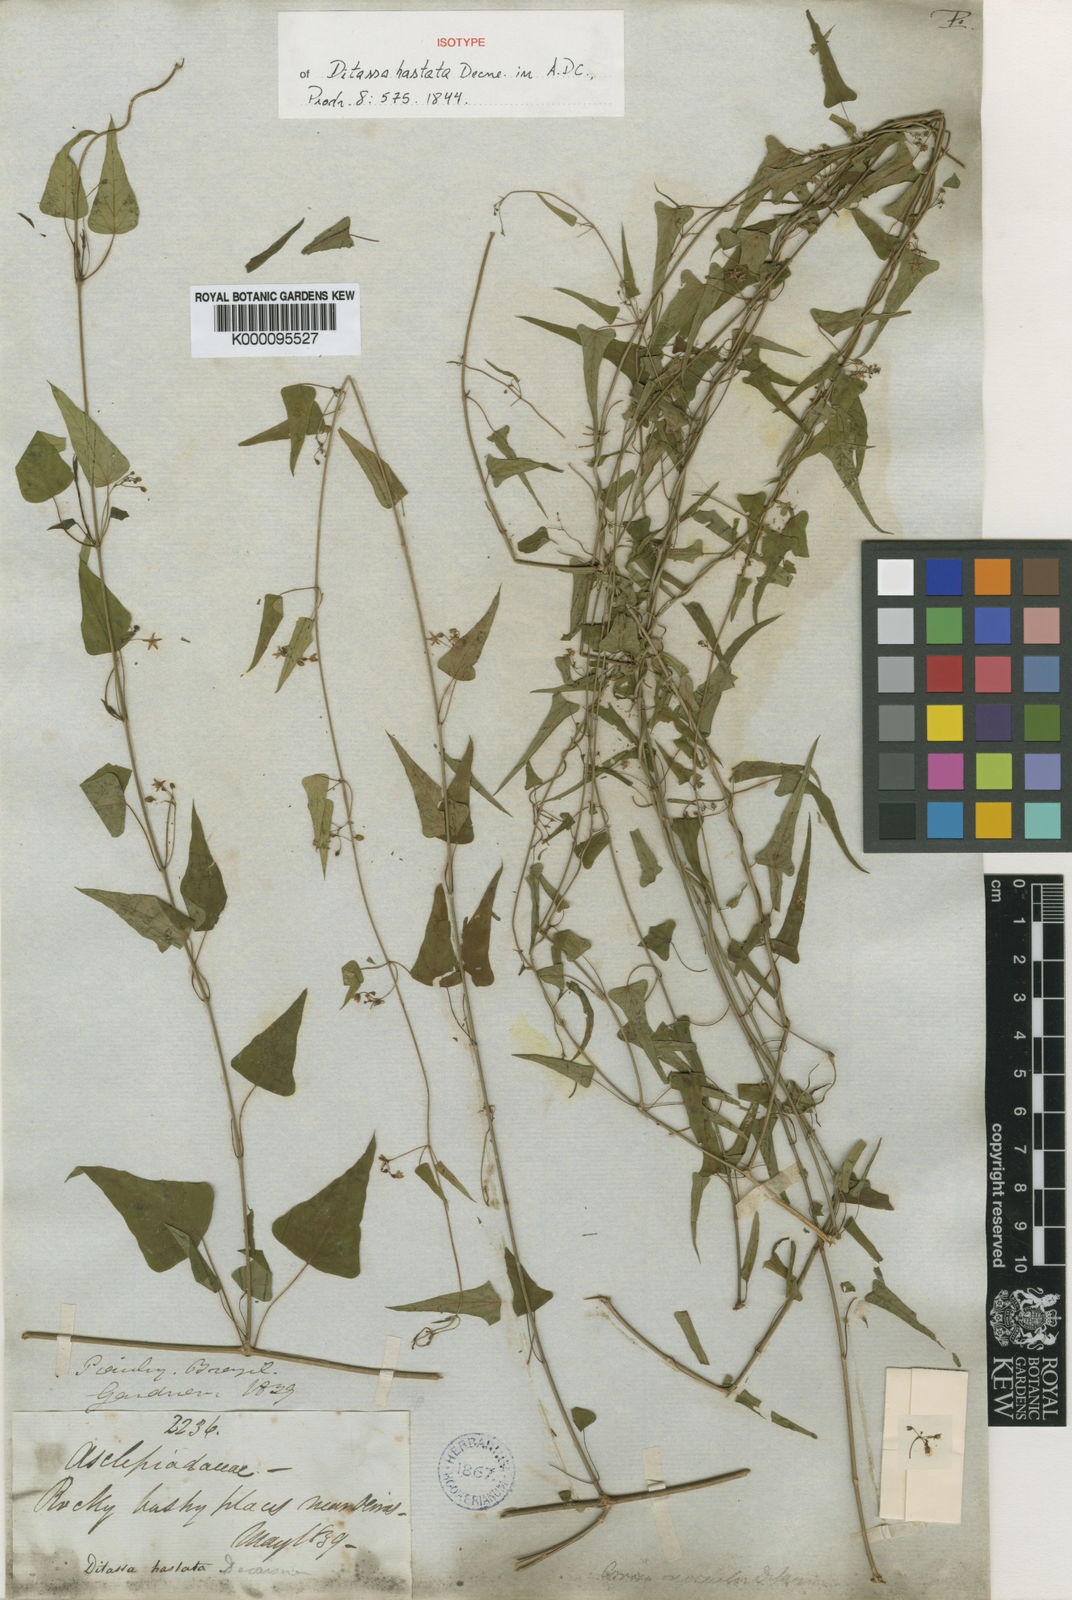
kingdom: Plantae
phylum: Tracheophyta
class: Magnoliopsida
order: Gentianales
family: Apocynaceae
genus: Ditassa
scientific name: Ditassa hastata
